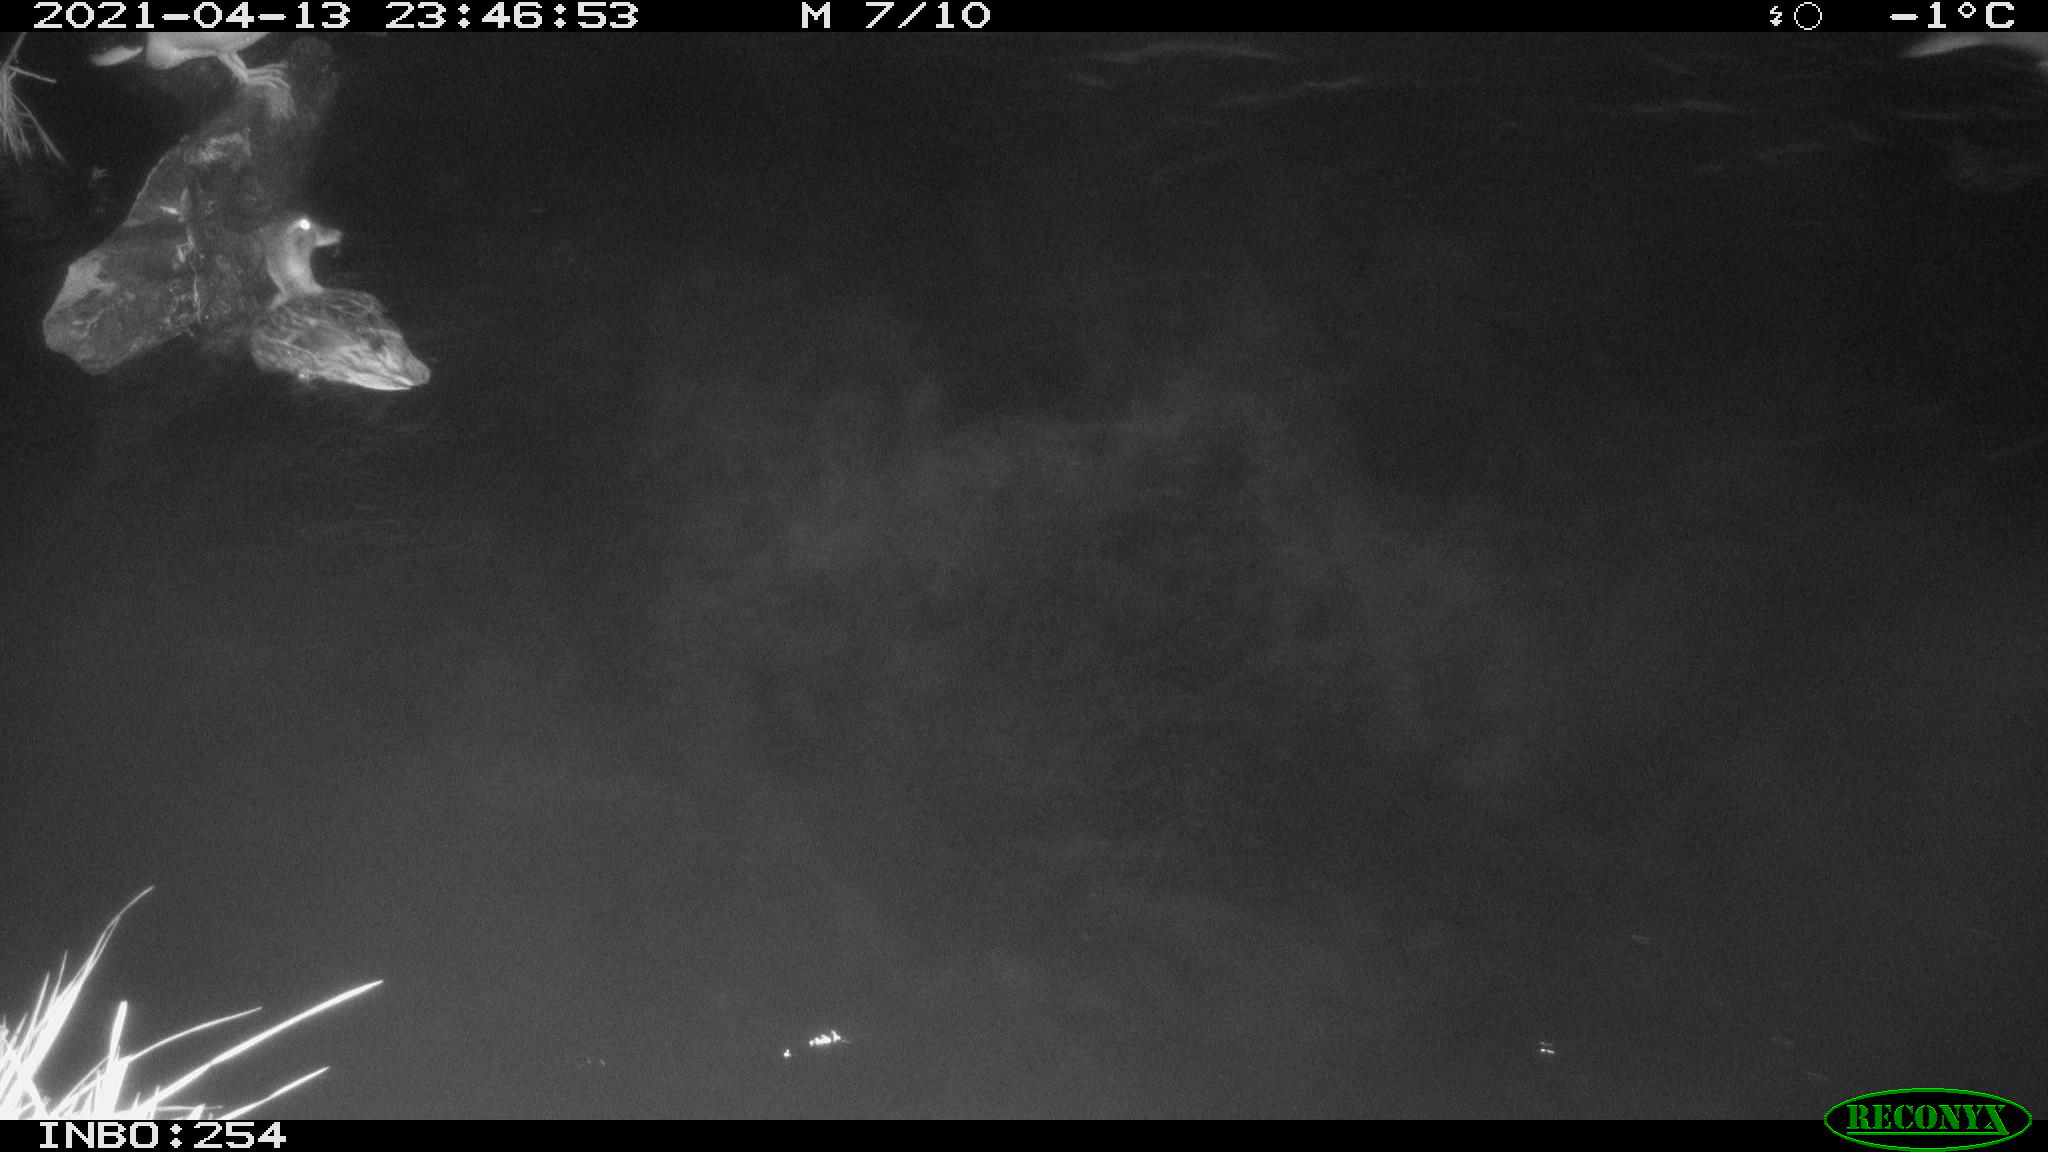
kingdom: Animalia
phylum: Chordata
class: Aves
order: Anseriformes
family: Anatidae
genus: Anas
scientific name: Anas
